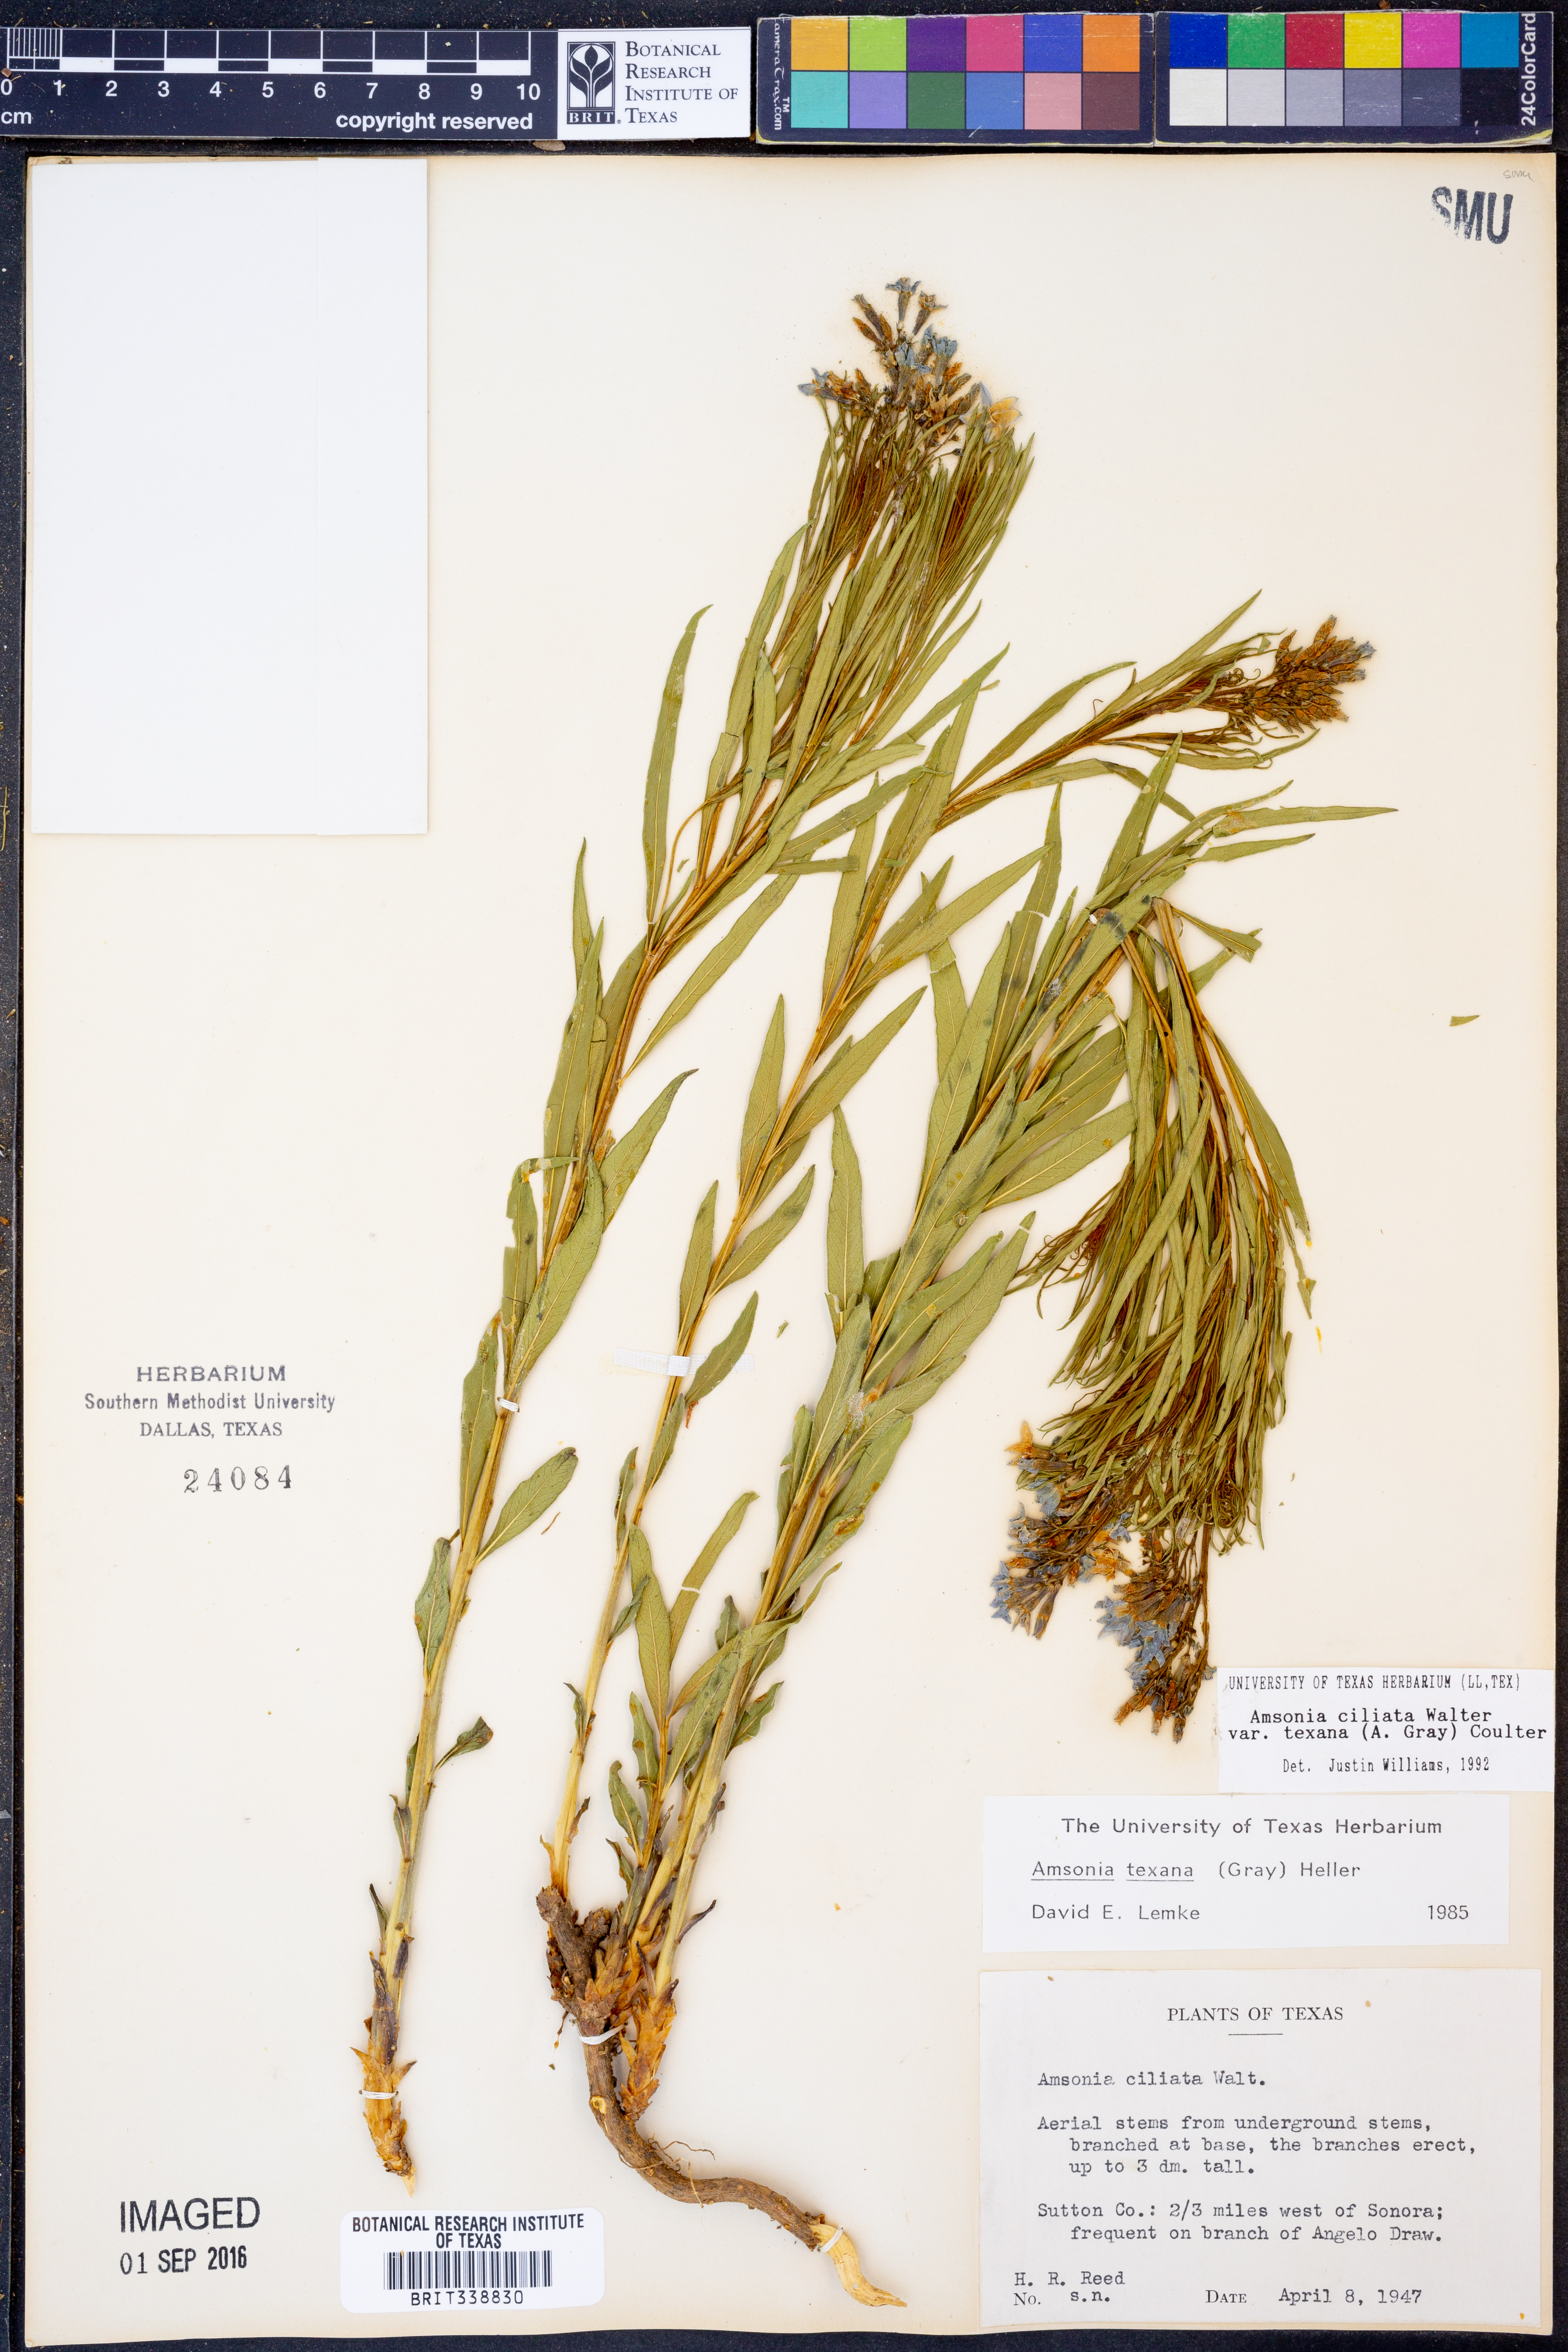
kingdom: Plantae
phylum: Tracheophyta
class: Magnoliopsida
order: Gentianales
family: Apocynaceae
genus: Amsonia
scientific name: Amsonia ciliata
